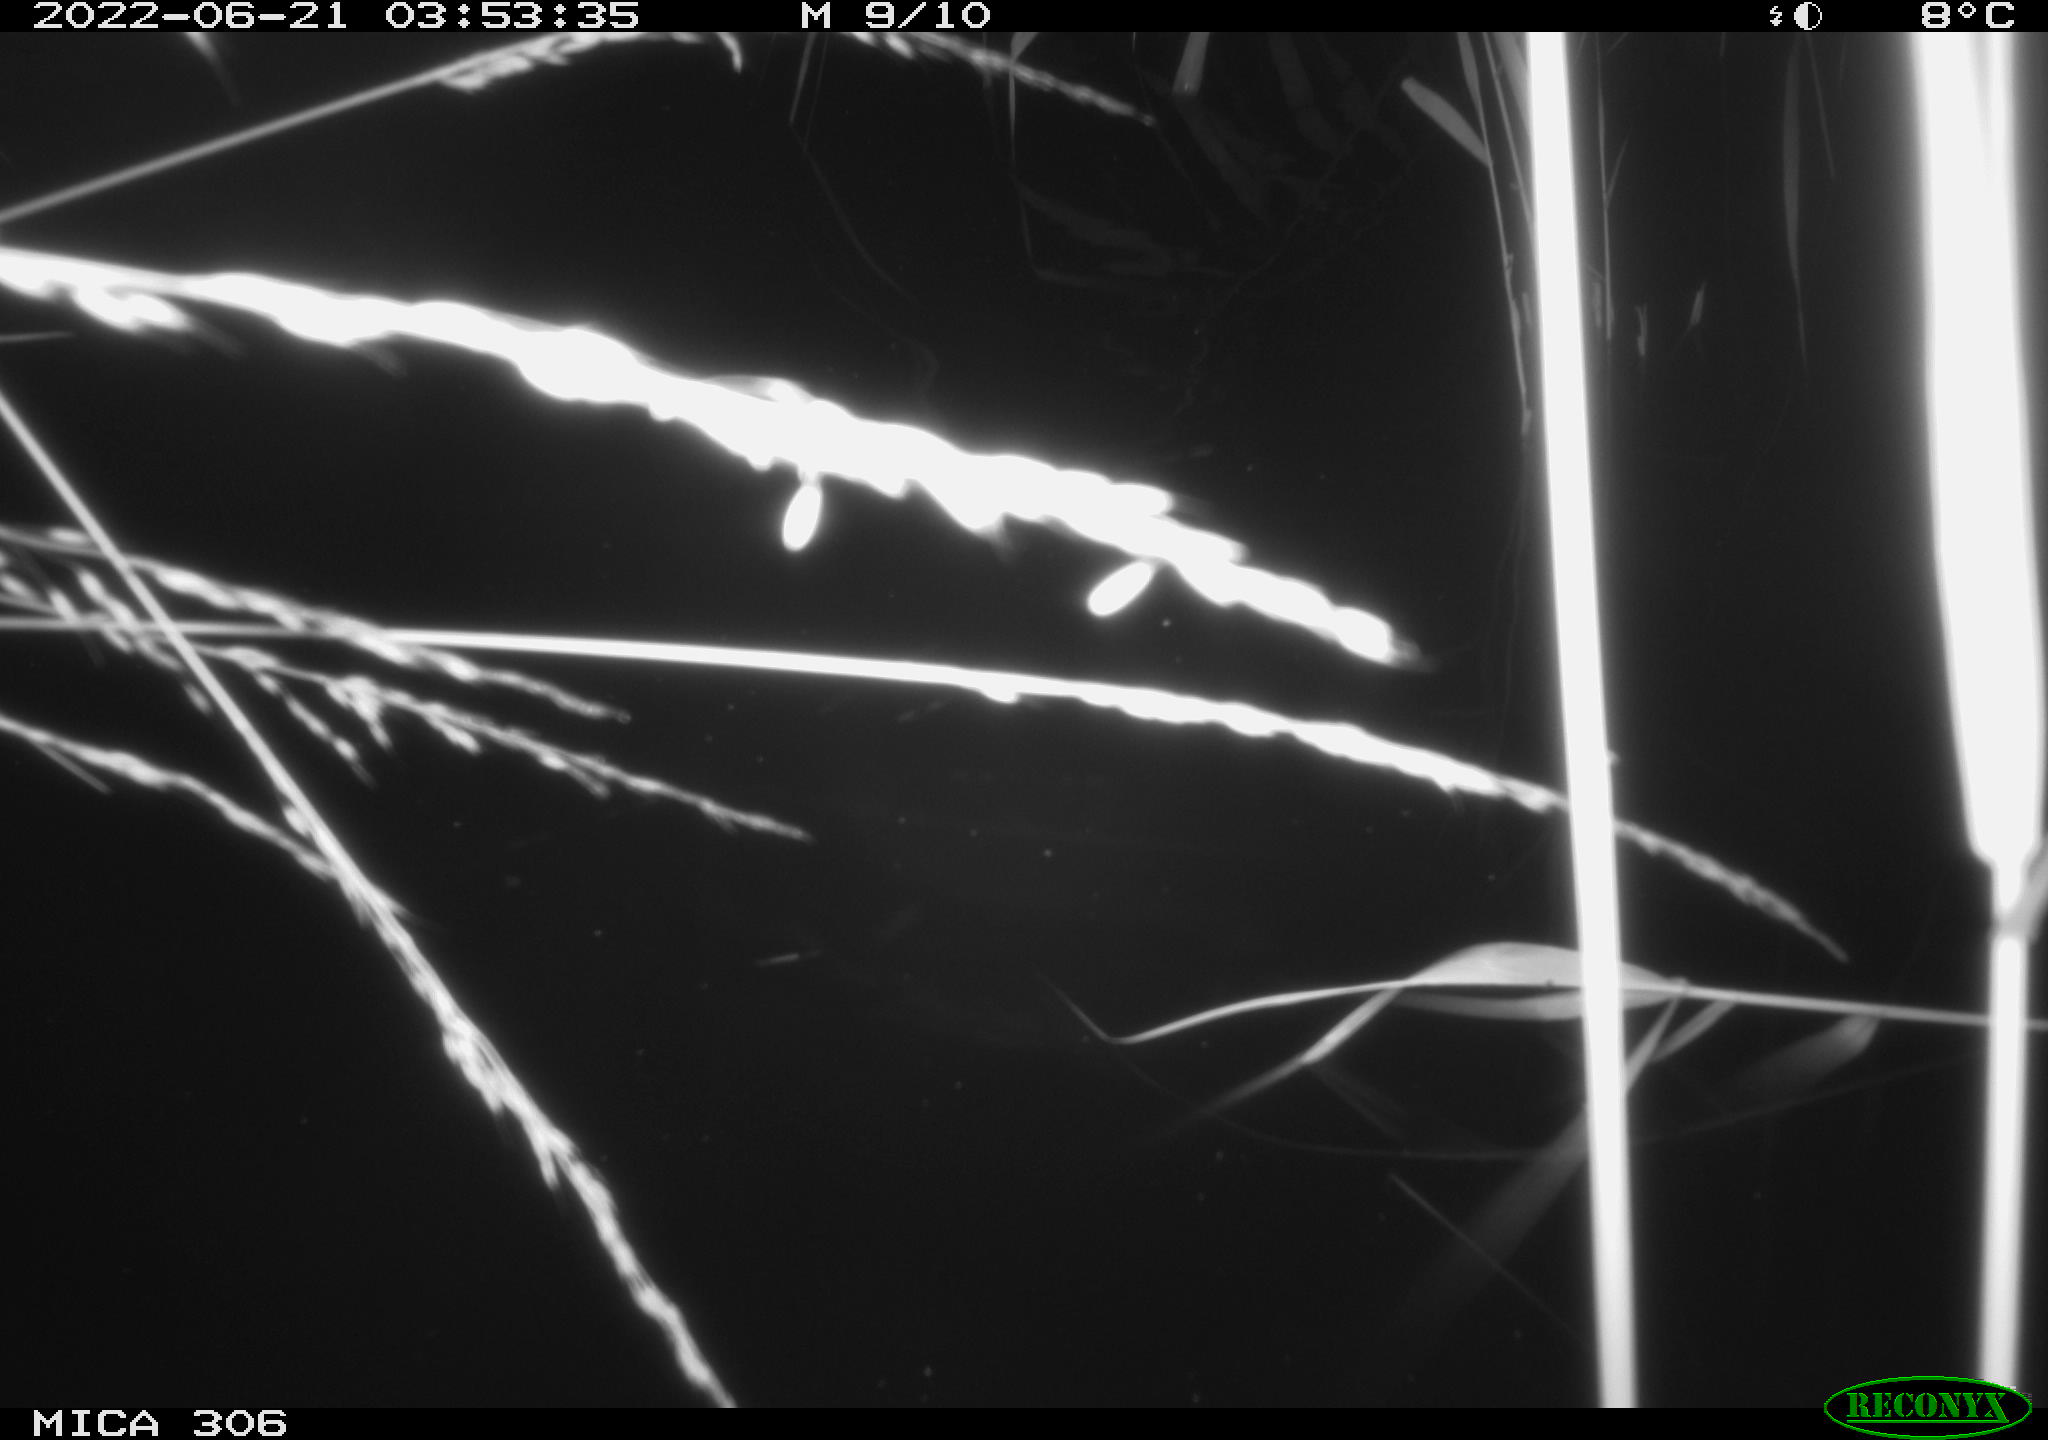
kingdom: Animalia
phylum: Chordata
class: Mammalia
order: Rodentia
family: Cricetidae
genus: Ondatra
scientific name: Ondatra zibethicus
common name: Muskrat
